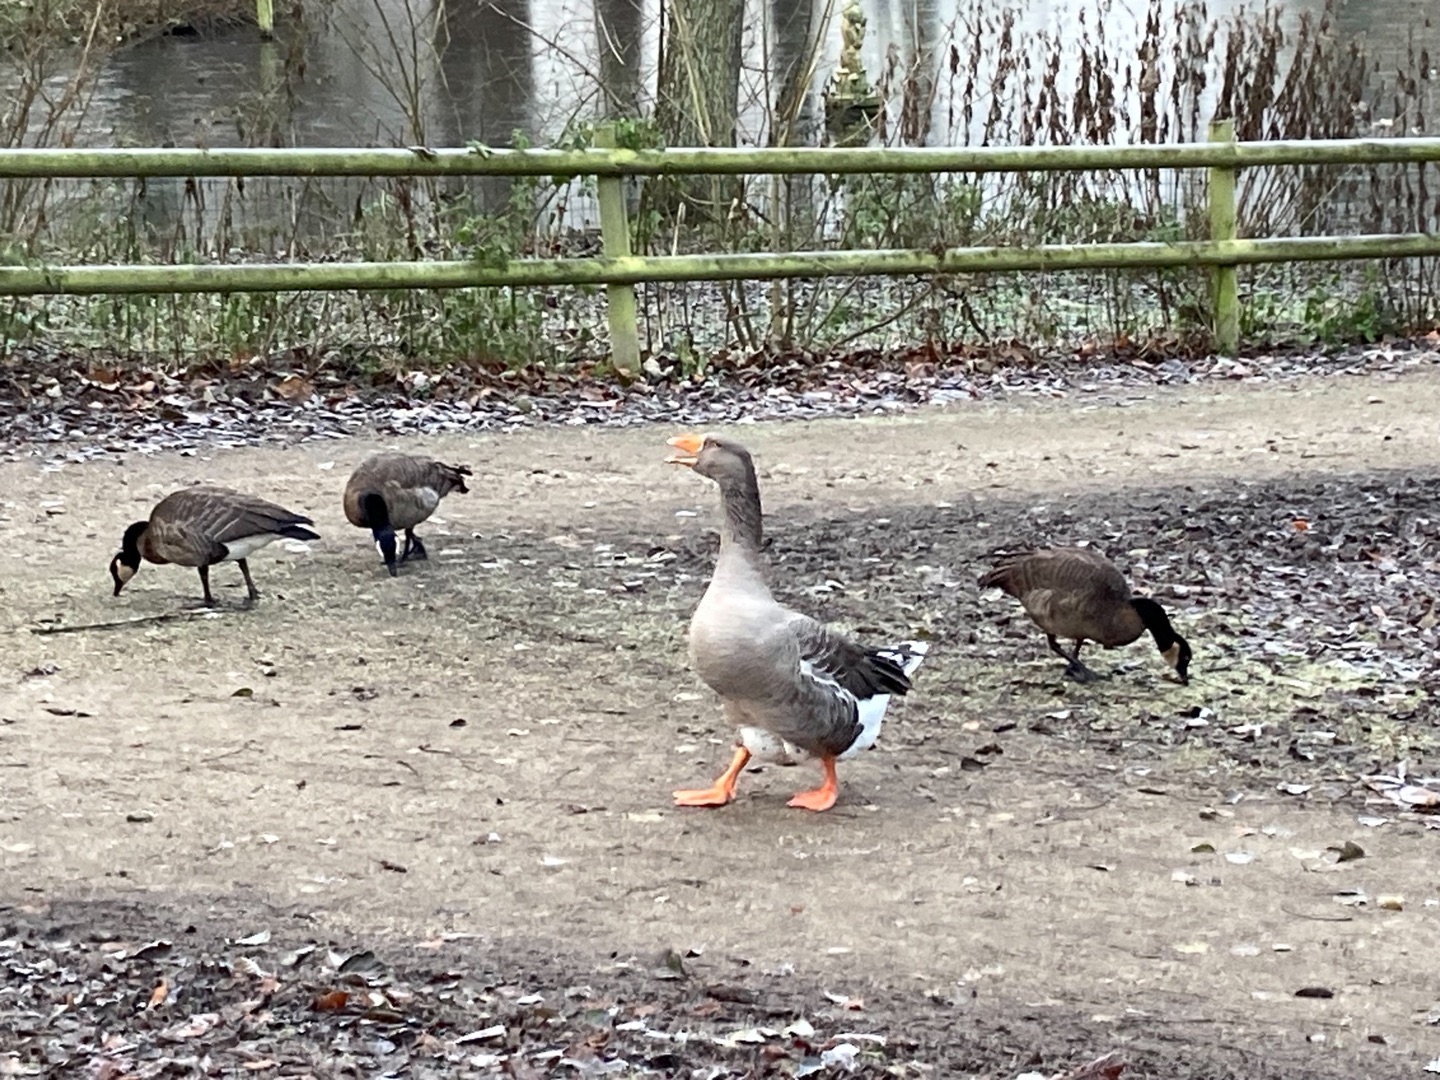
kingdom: Animalia
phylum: Chordata
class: Aves
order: Anseriformes
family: Anatidae
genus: Branta
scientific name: Branta canadensis
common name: Canadagås
